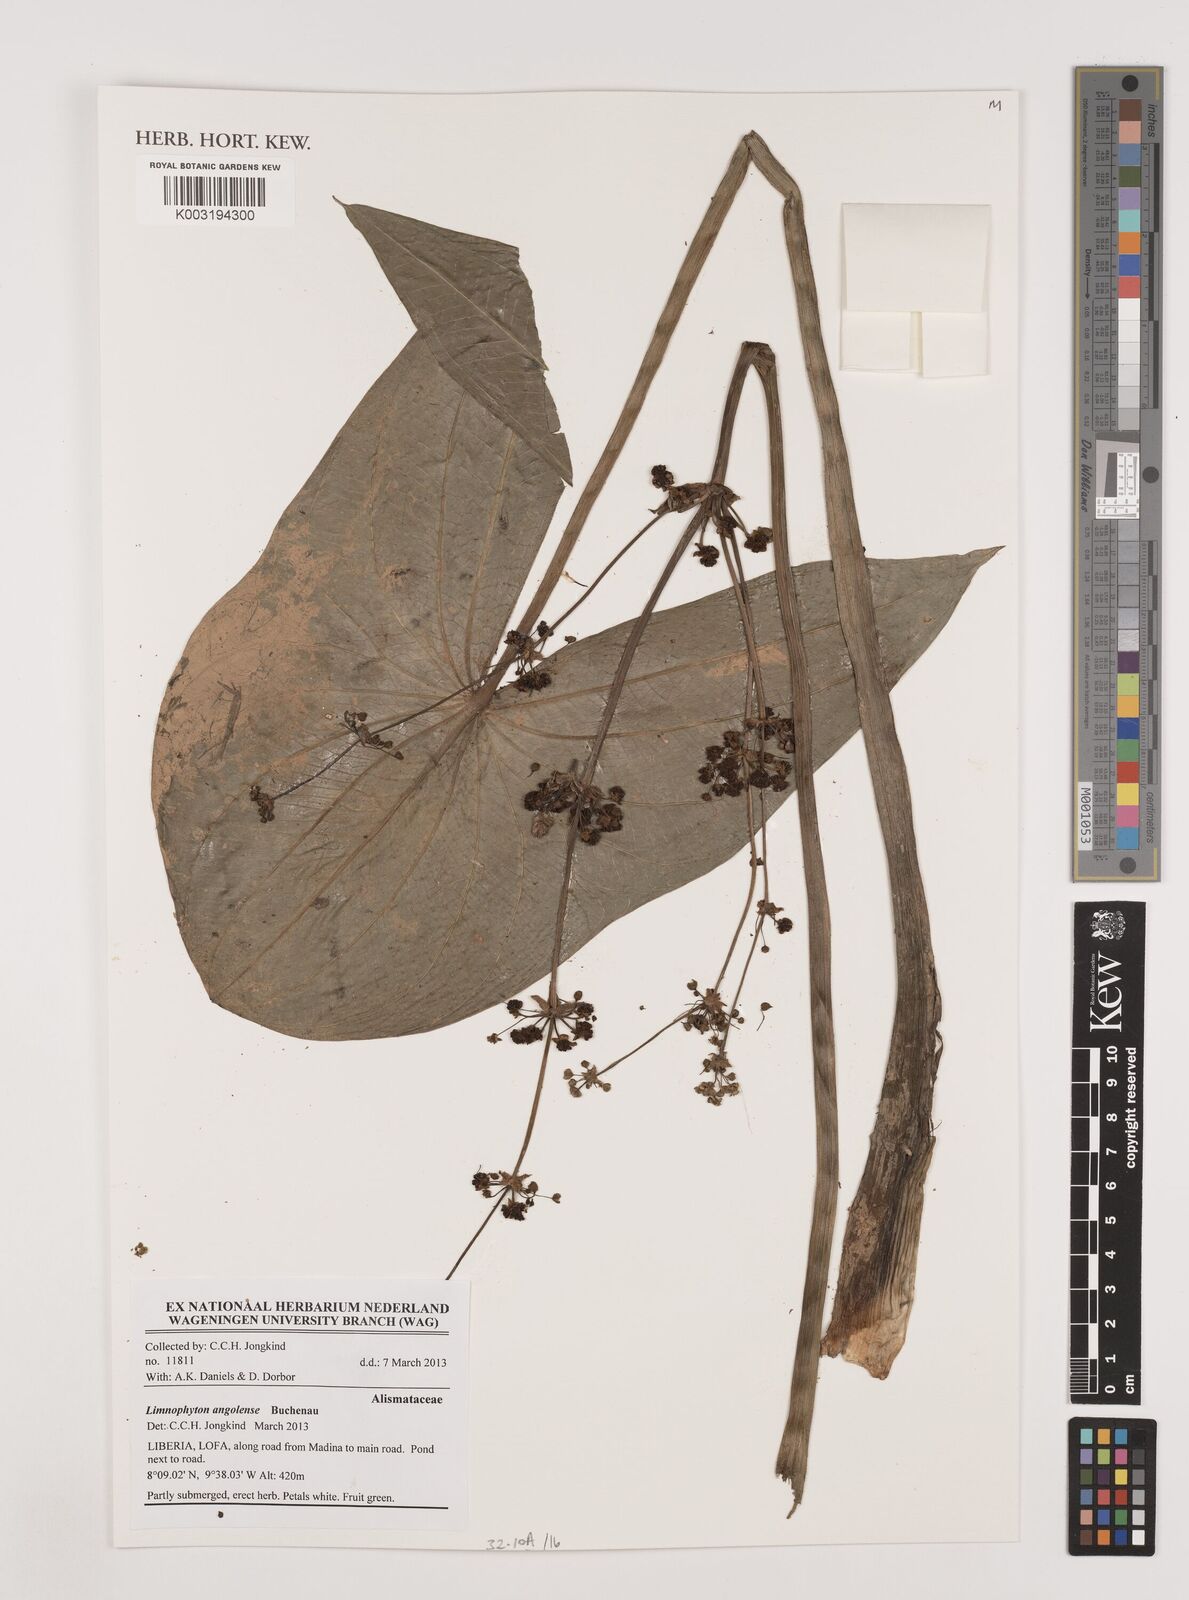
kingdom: Plantae
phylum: Tracheophyta
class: Liliopsida
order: Alismatales
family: Alismataceae
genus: Limnophyton
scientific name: Limnophyton angolense
